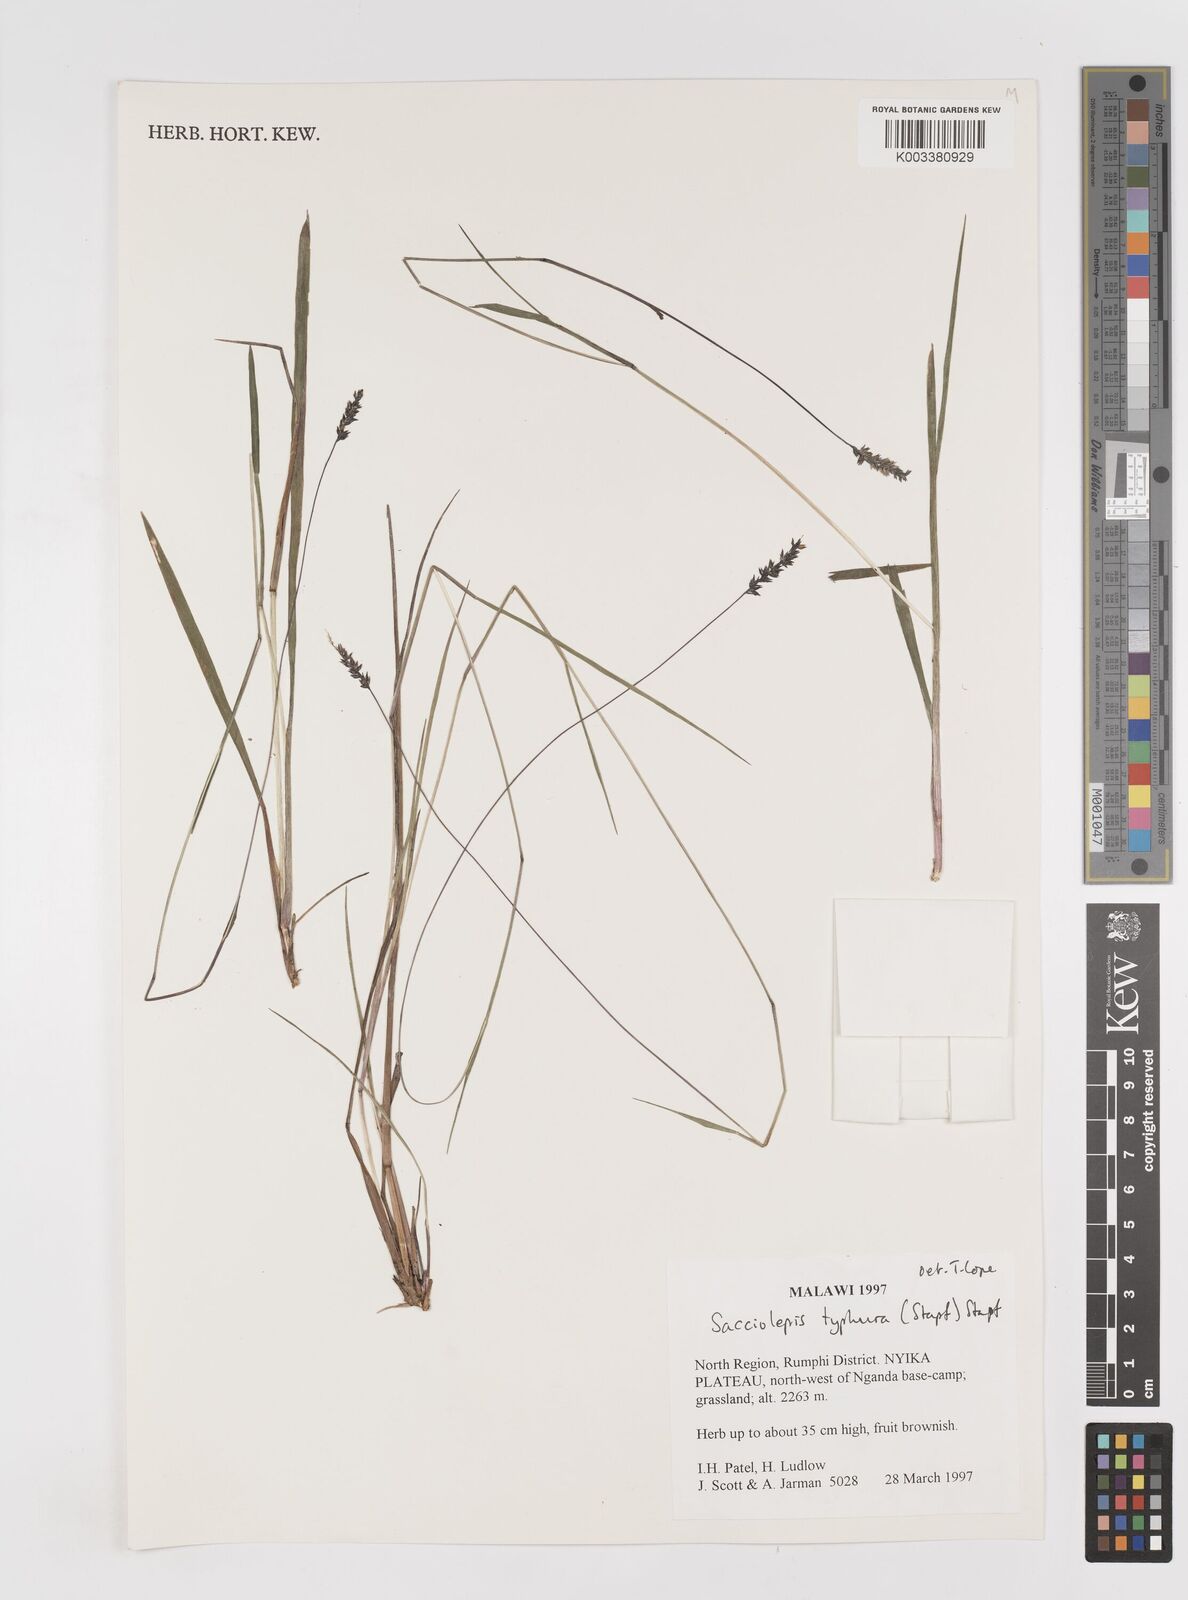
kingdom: Plantae
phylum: Tracheophyta
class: Liliopsida
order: Poales
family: Poaceae
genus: Sacciolepis
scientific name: Sacciolepis typhura
